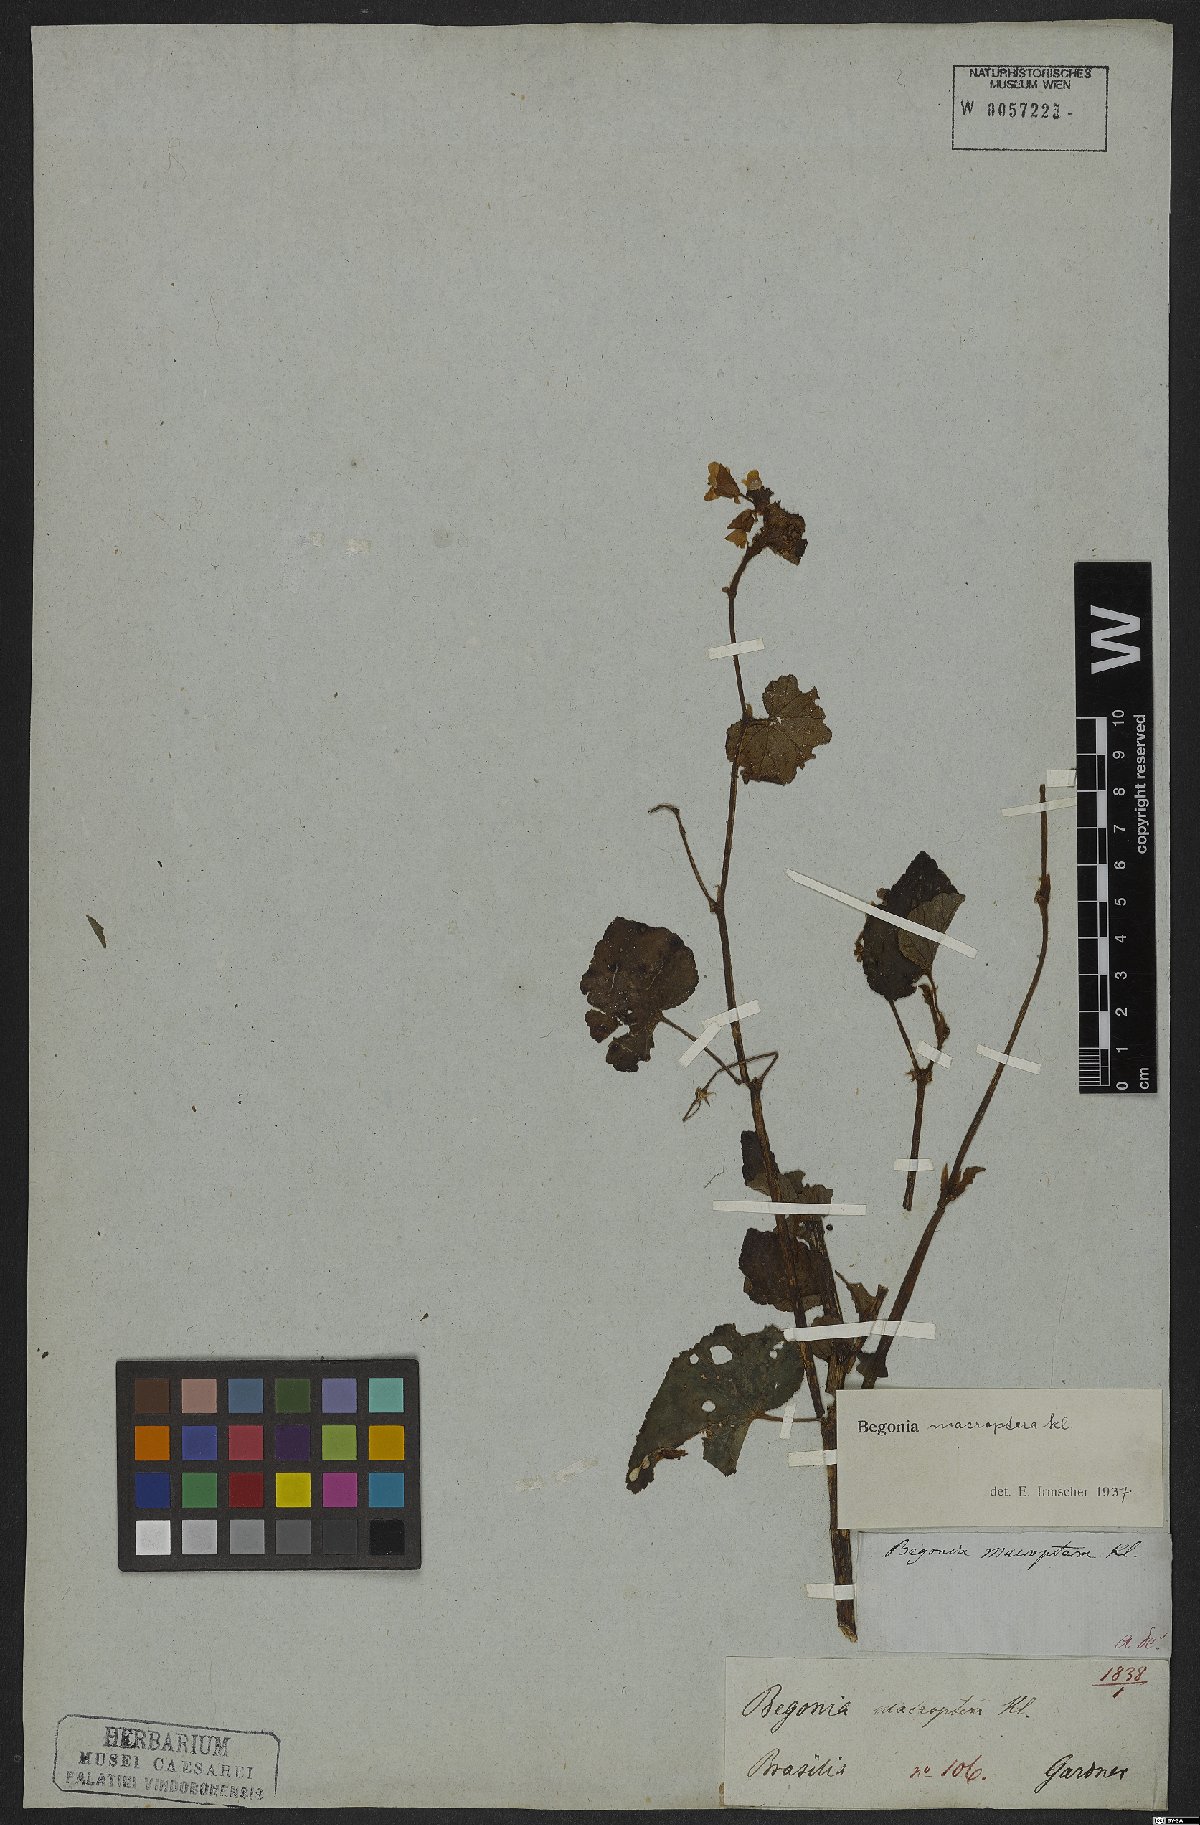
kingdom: Plantae
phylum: Tracheophyta
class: Magnoliopsida
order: Cucurbitales
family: Begoniaceae
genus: Begonia
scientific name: Begonia fischeri
